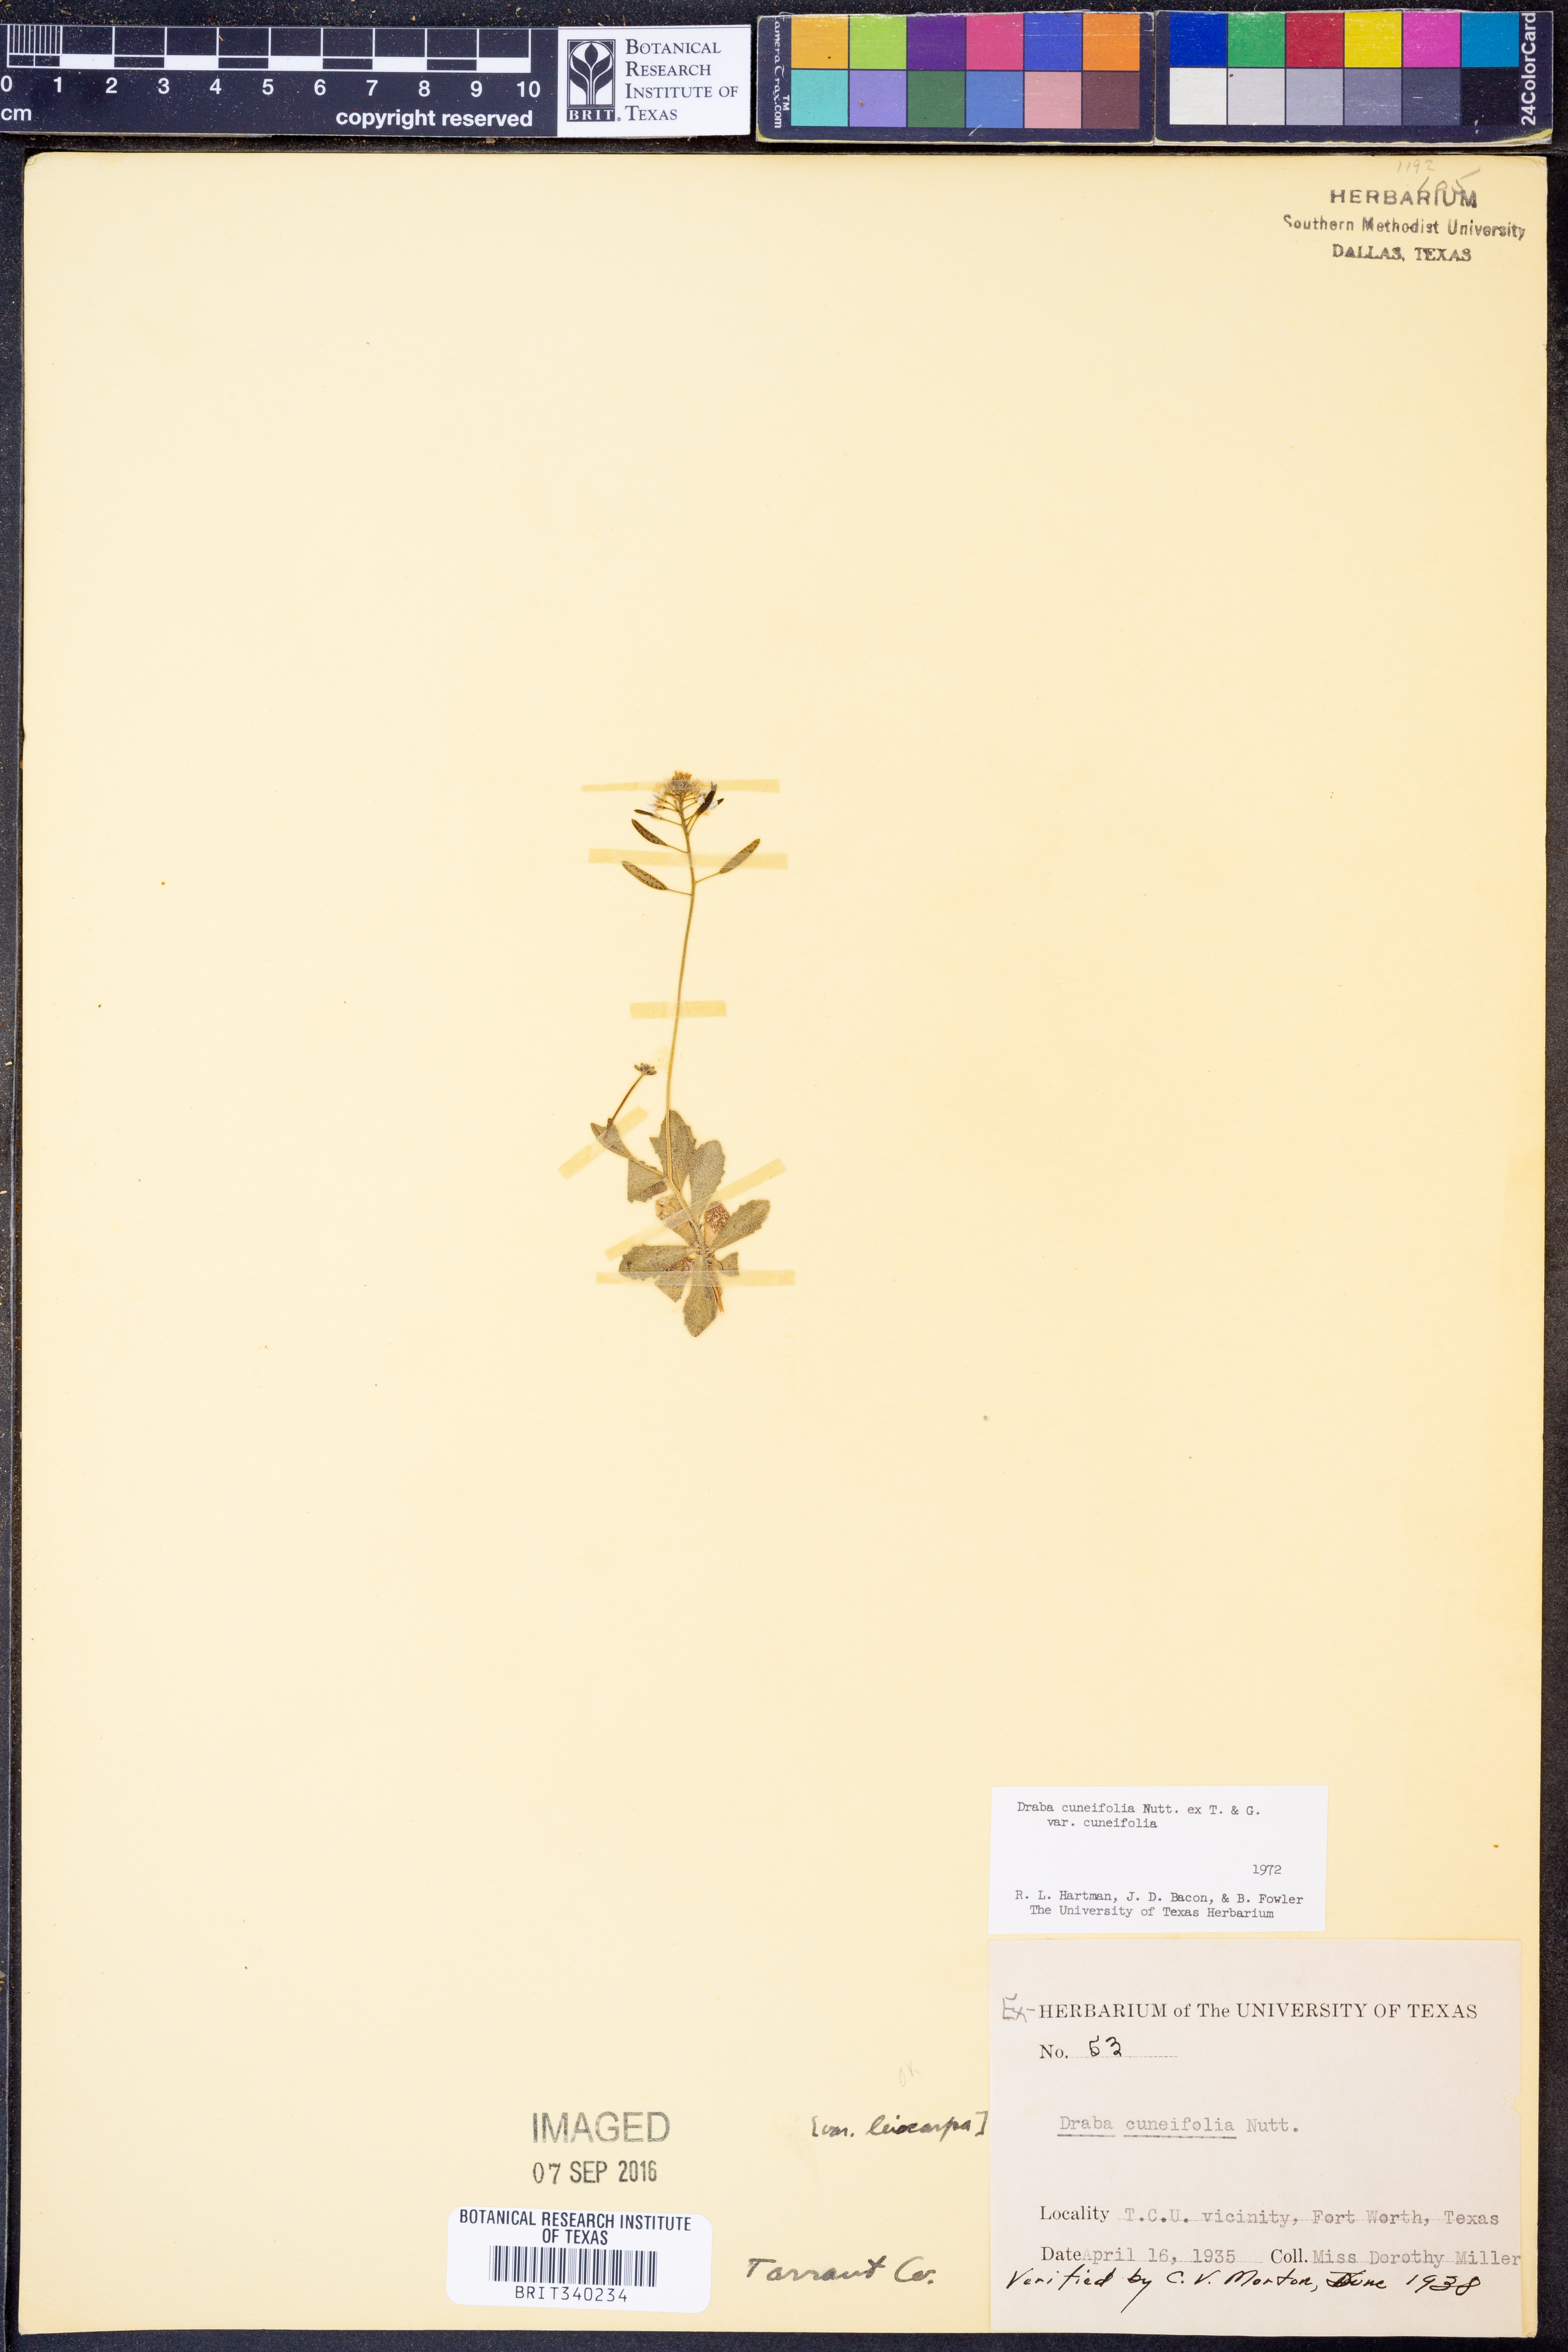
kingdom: Plantae
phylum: Tracheophyta
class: Magnoliopsida
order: Brassicales
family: Brassicaceae
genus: Tomostima
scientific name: Tomostima cuneifolia
